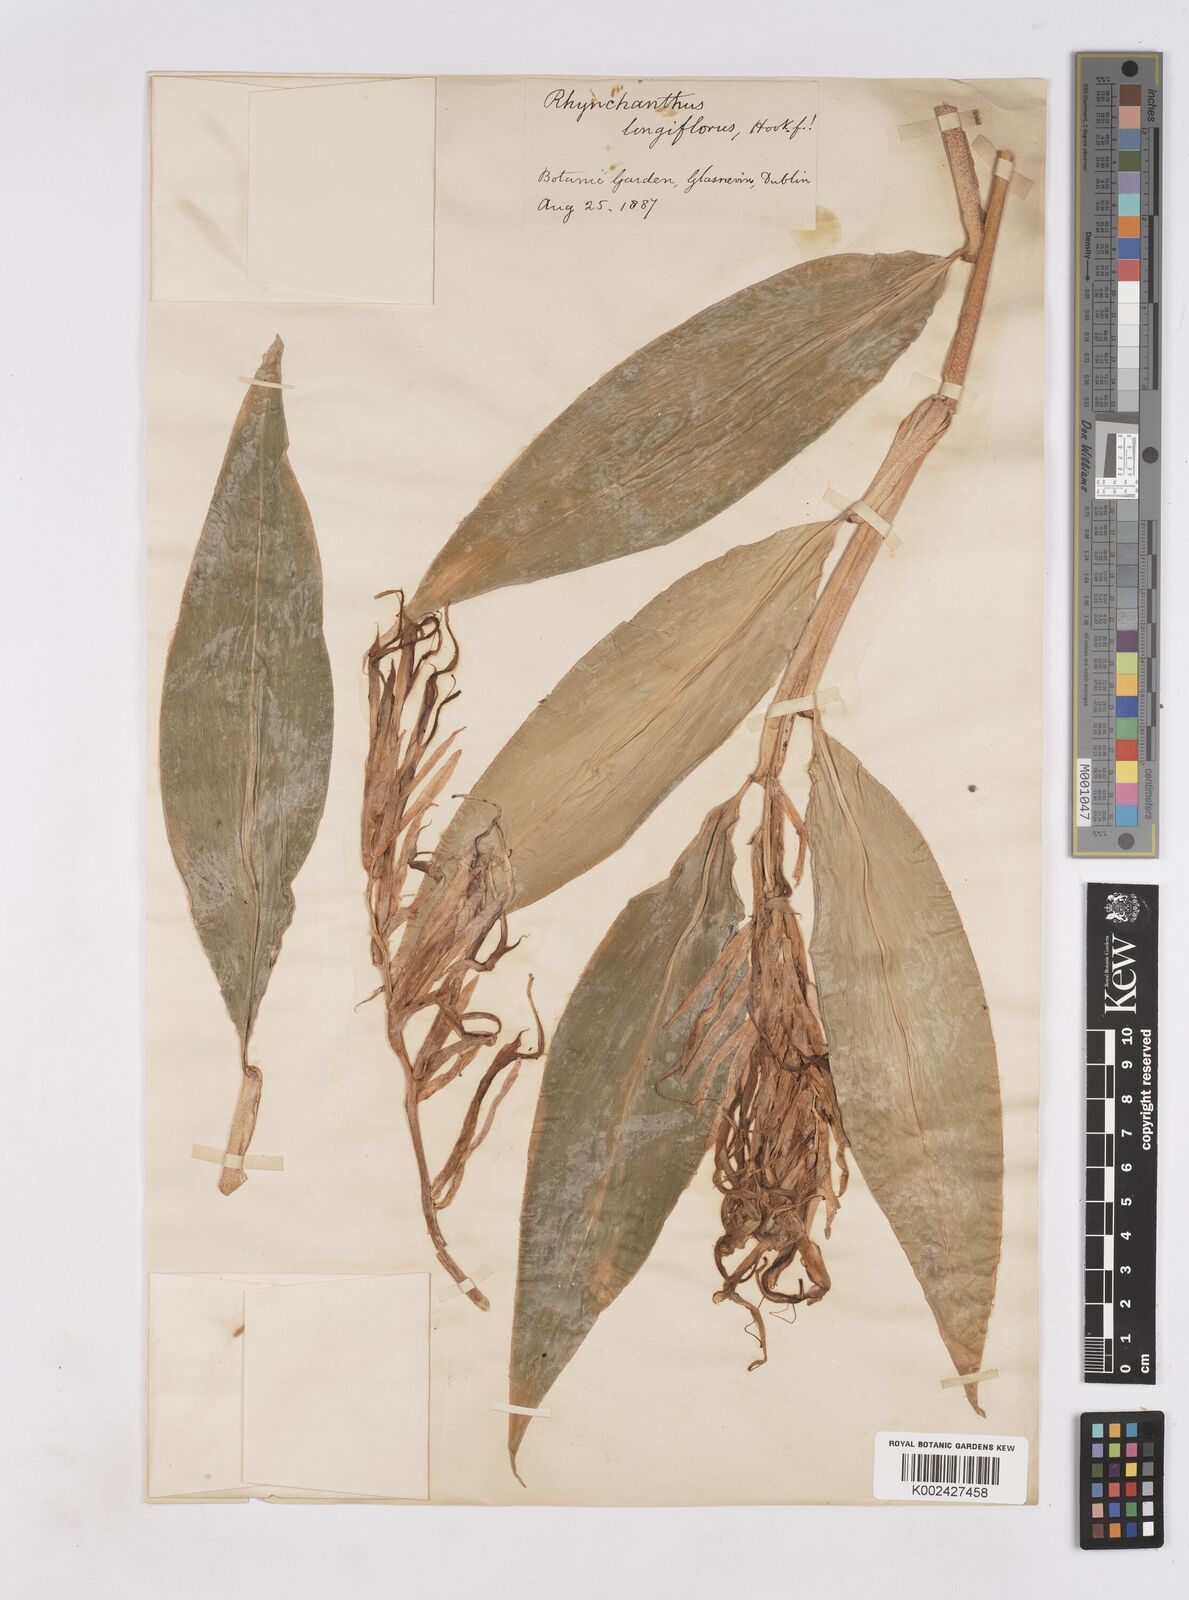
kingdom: Plantae
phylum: Tracheophyta
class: Liliopsida
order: Zingiberales
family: Zingiberaceae
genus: Rhynchanthus
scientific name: Rhynchanthus longiflorus
